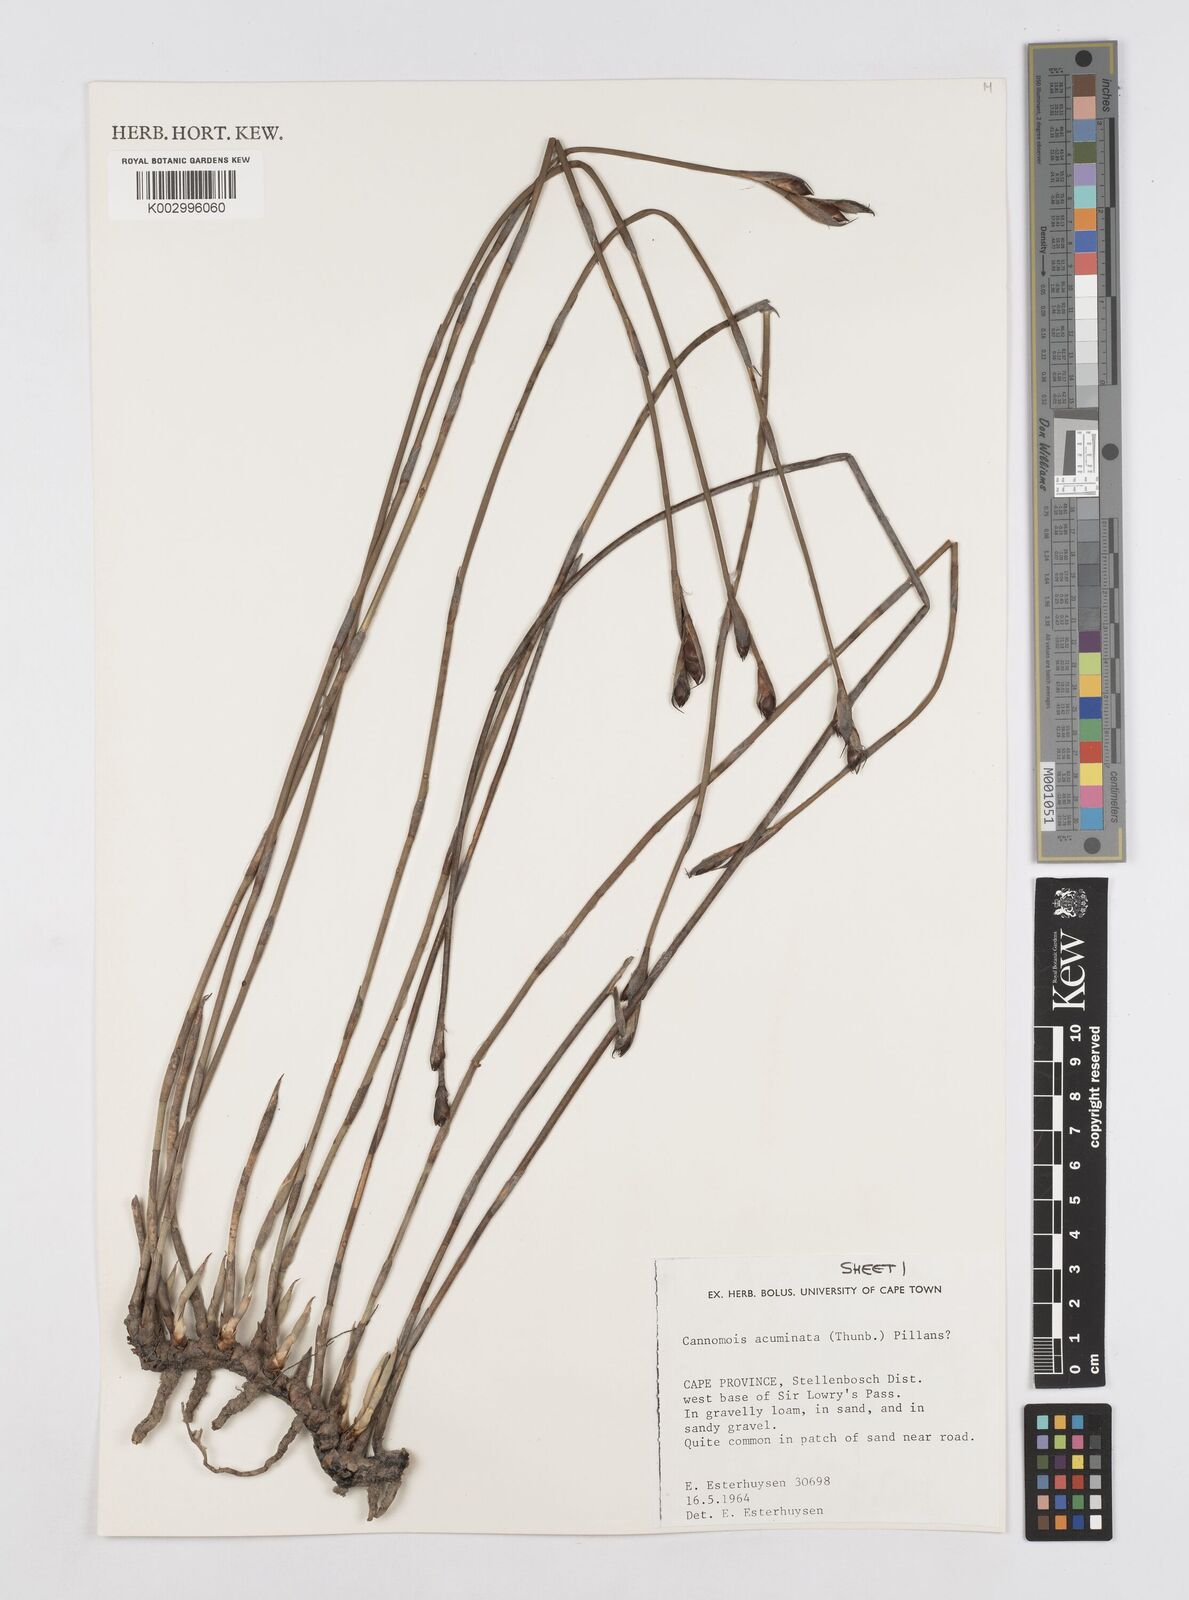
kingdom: Plantae
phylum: Tracheophyta
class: Liliopsida
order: Poales
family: Restionaceae
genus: Cannomois
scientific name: Cannomois parviflora
